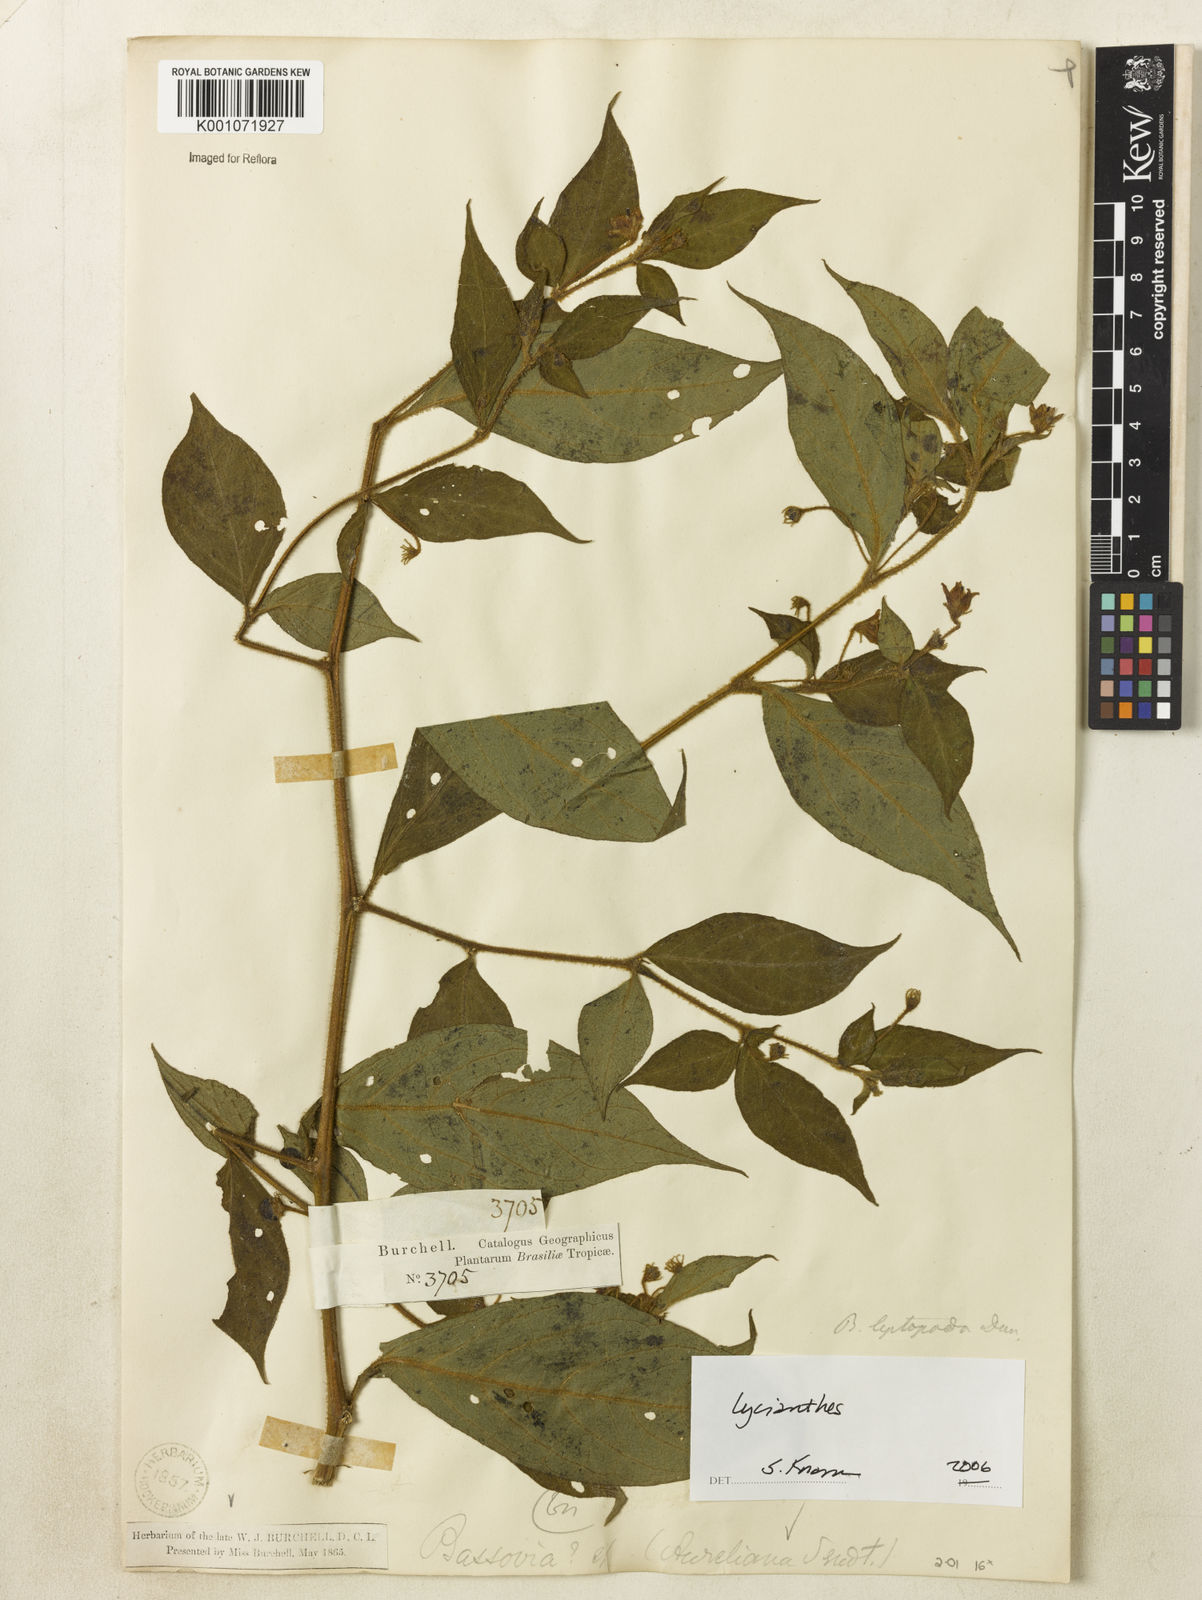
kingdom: Plantae
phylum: Tracheophyta
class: Magnoliopsida
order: Solanales
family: Solanaceae
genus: Lycianthes
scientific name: Lycianthes
